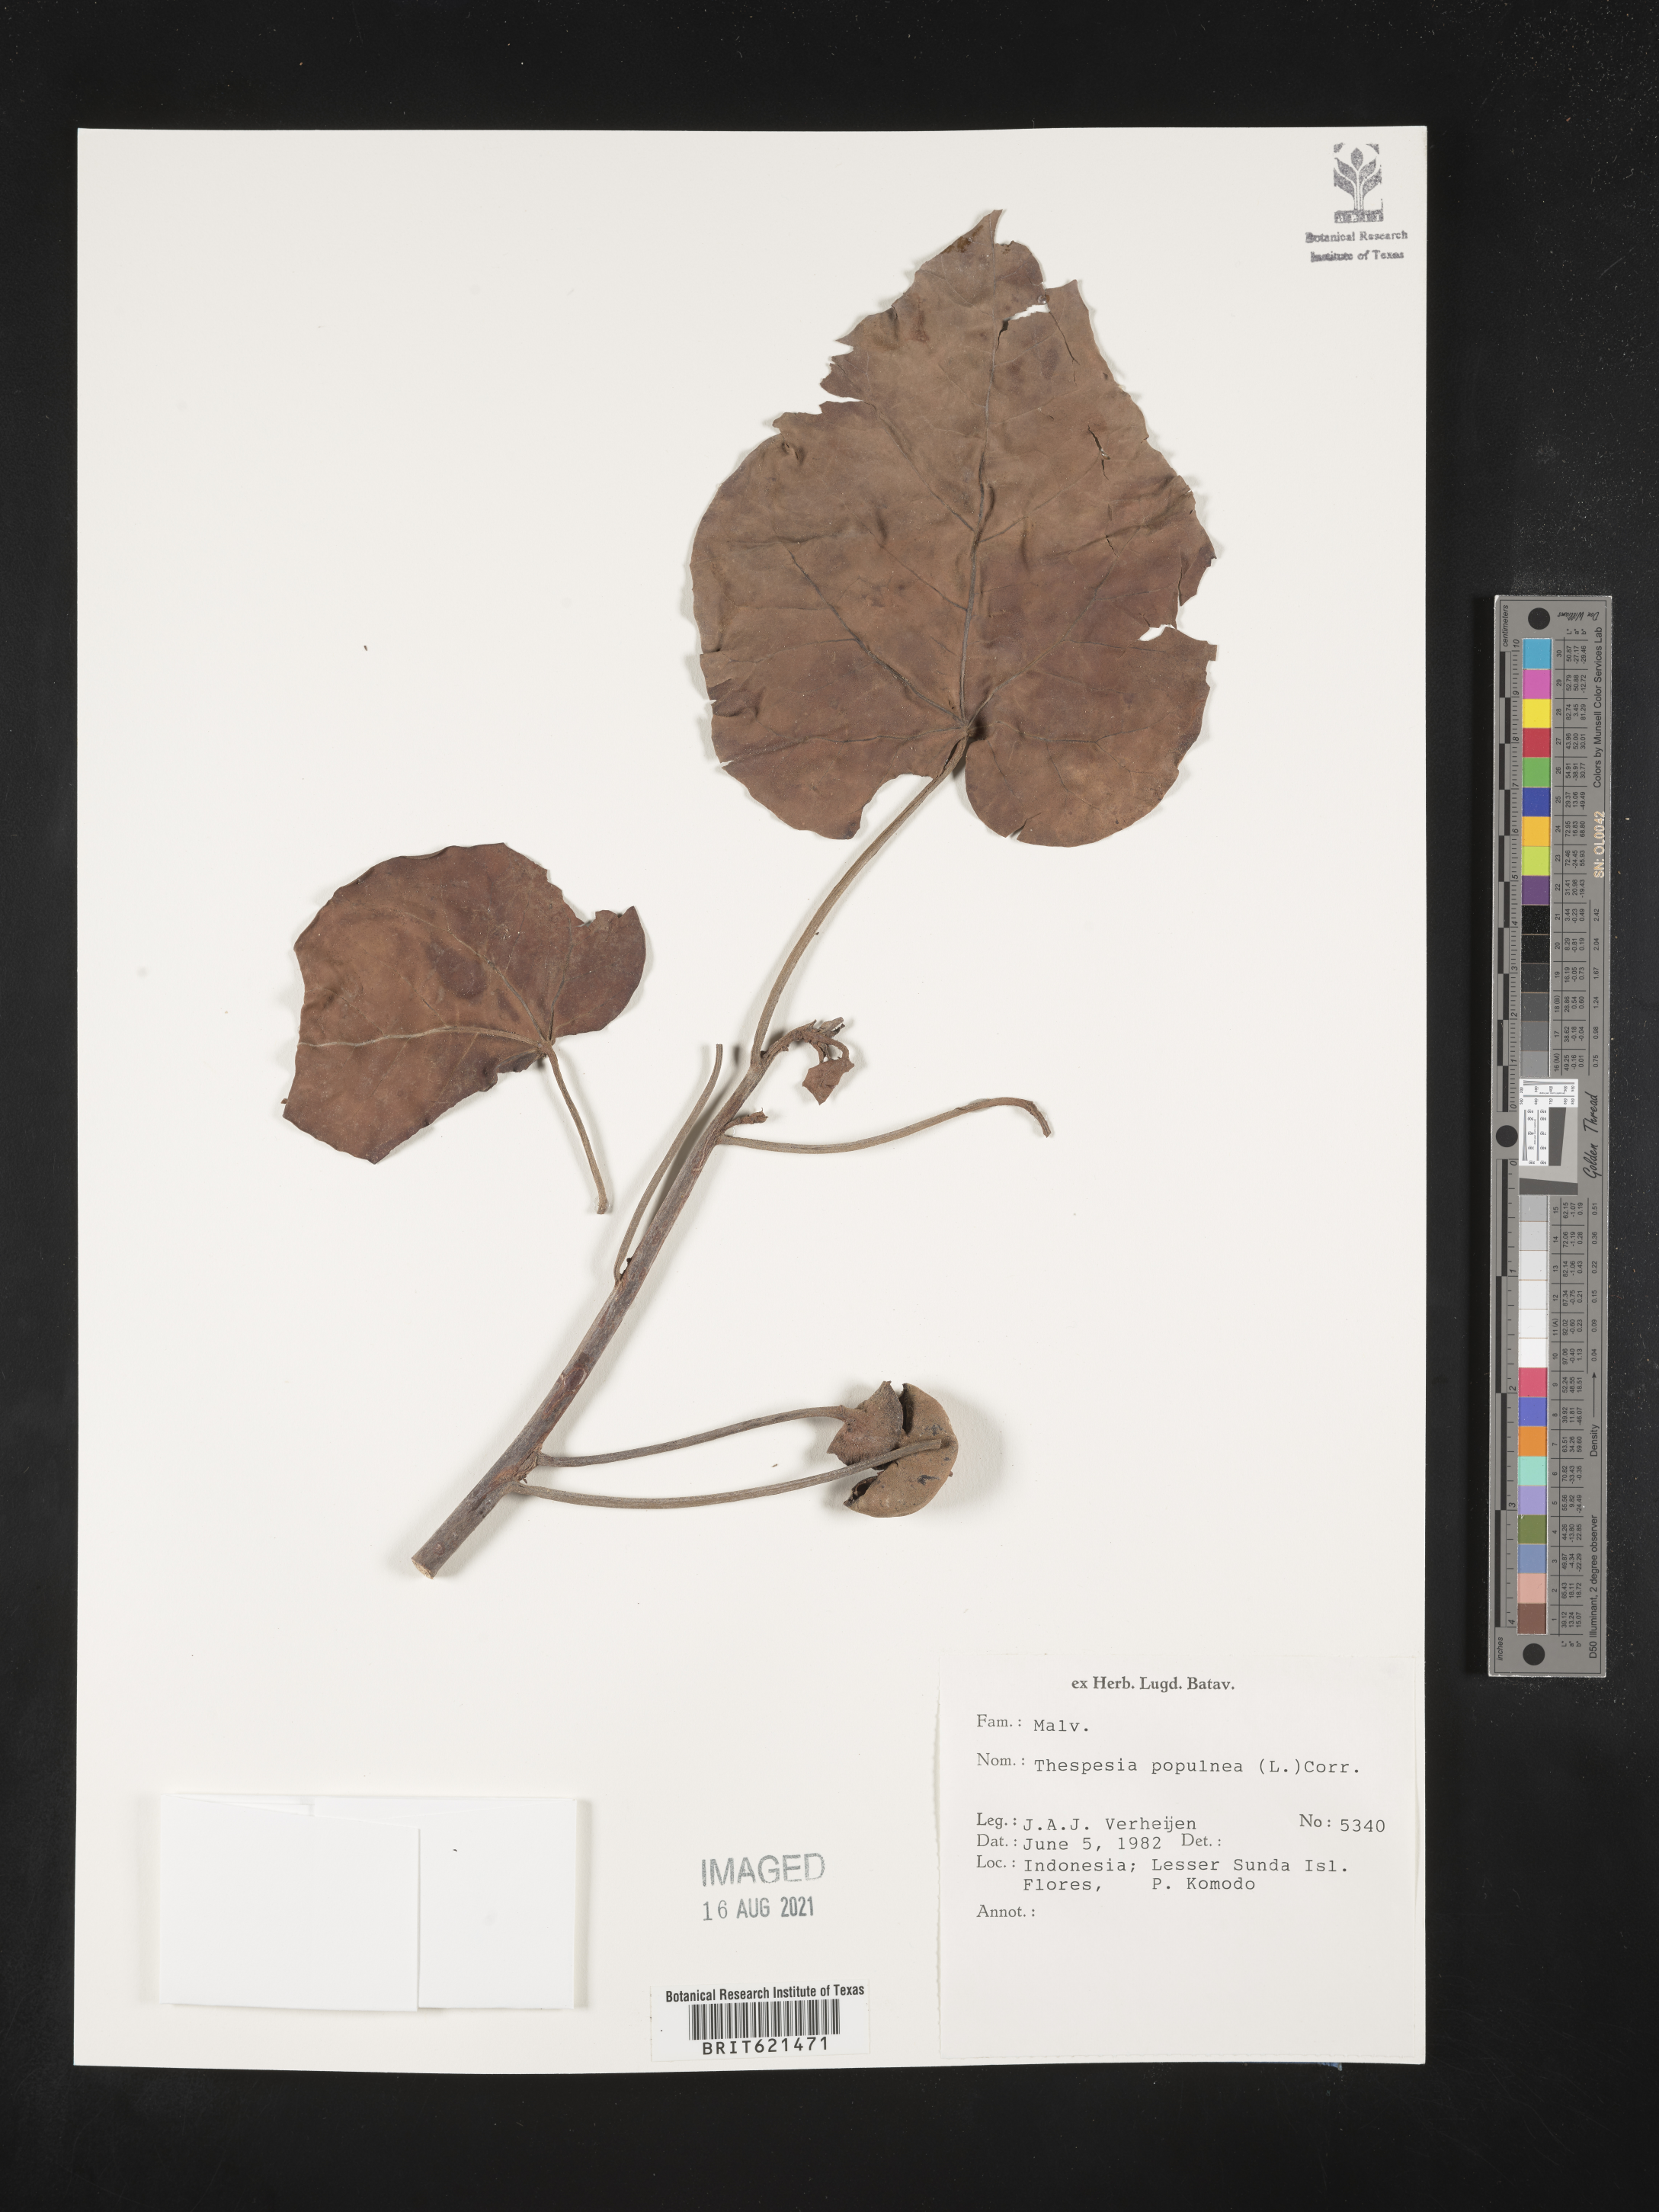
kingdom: Plantae
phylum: Tracheophyta
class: Magnoliopsida
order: Malvales
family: Malvaceae
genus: Thespesia
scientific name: Thespesia populnea
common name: Seaside mahoe
